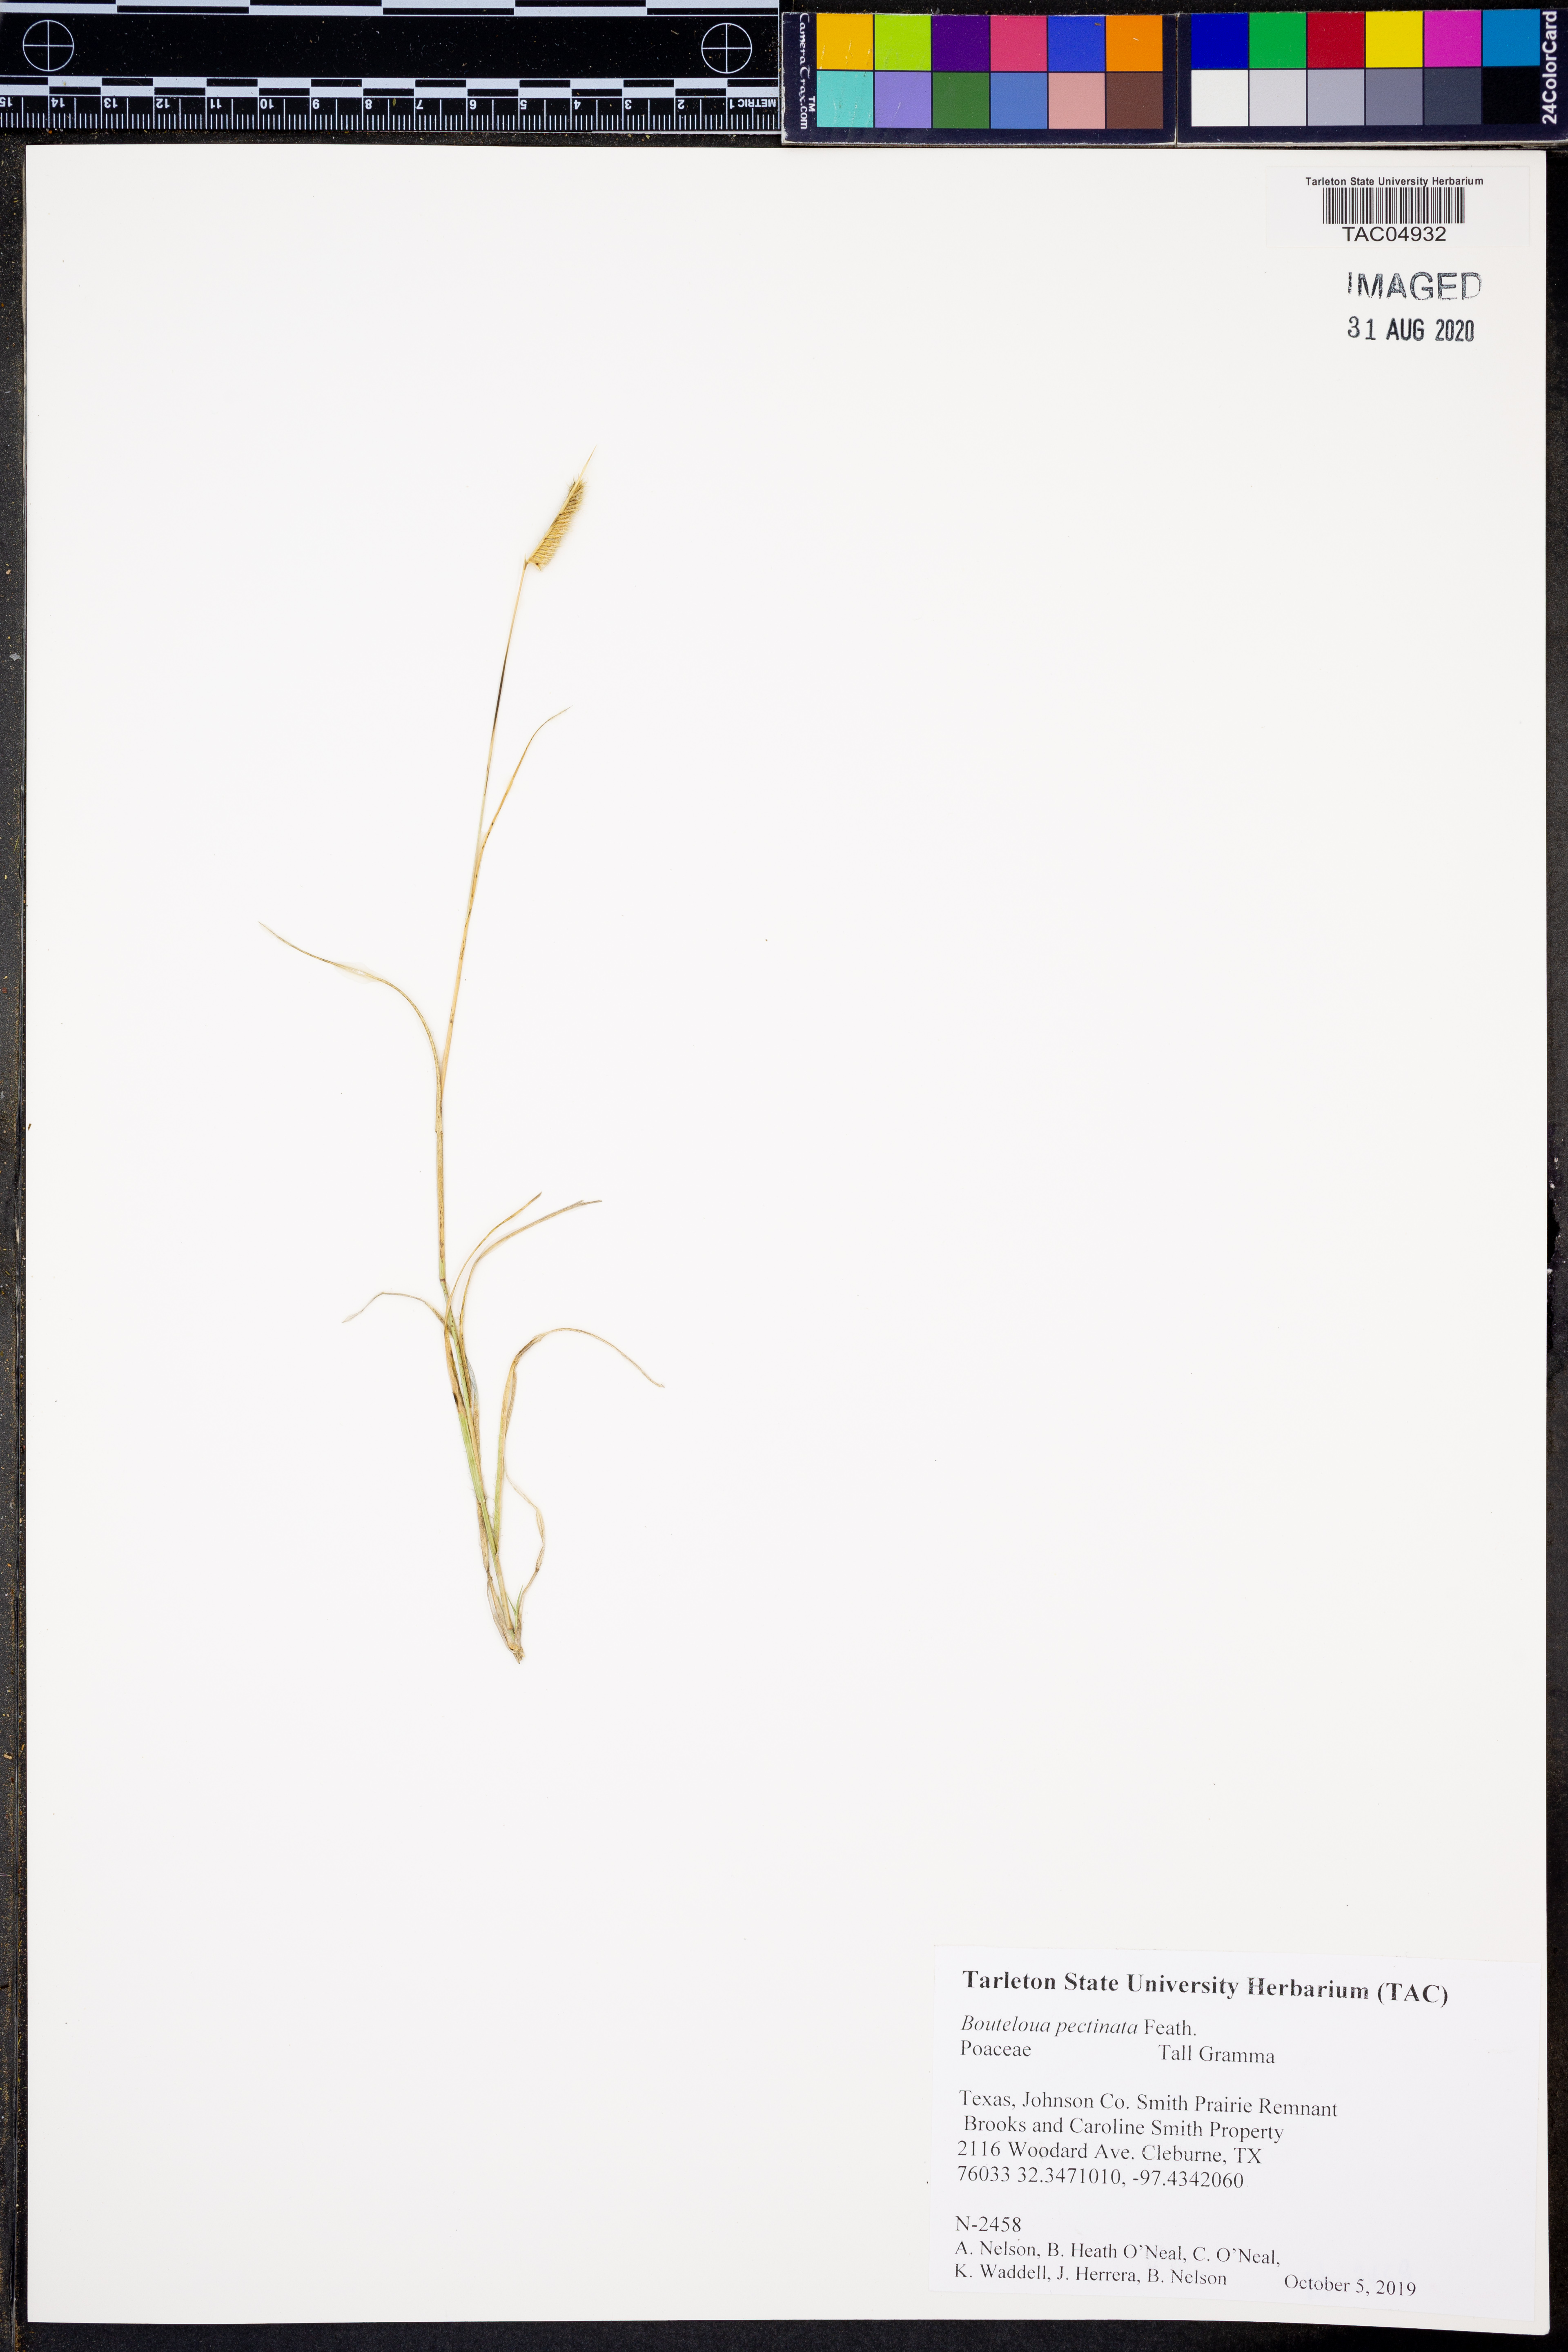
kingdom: Plantae
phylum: Tracheophyta
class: Liliopsida
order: Poales
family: Poaceae
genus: Bouteloua
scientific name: Bouteloua pectinata
